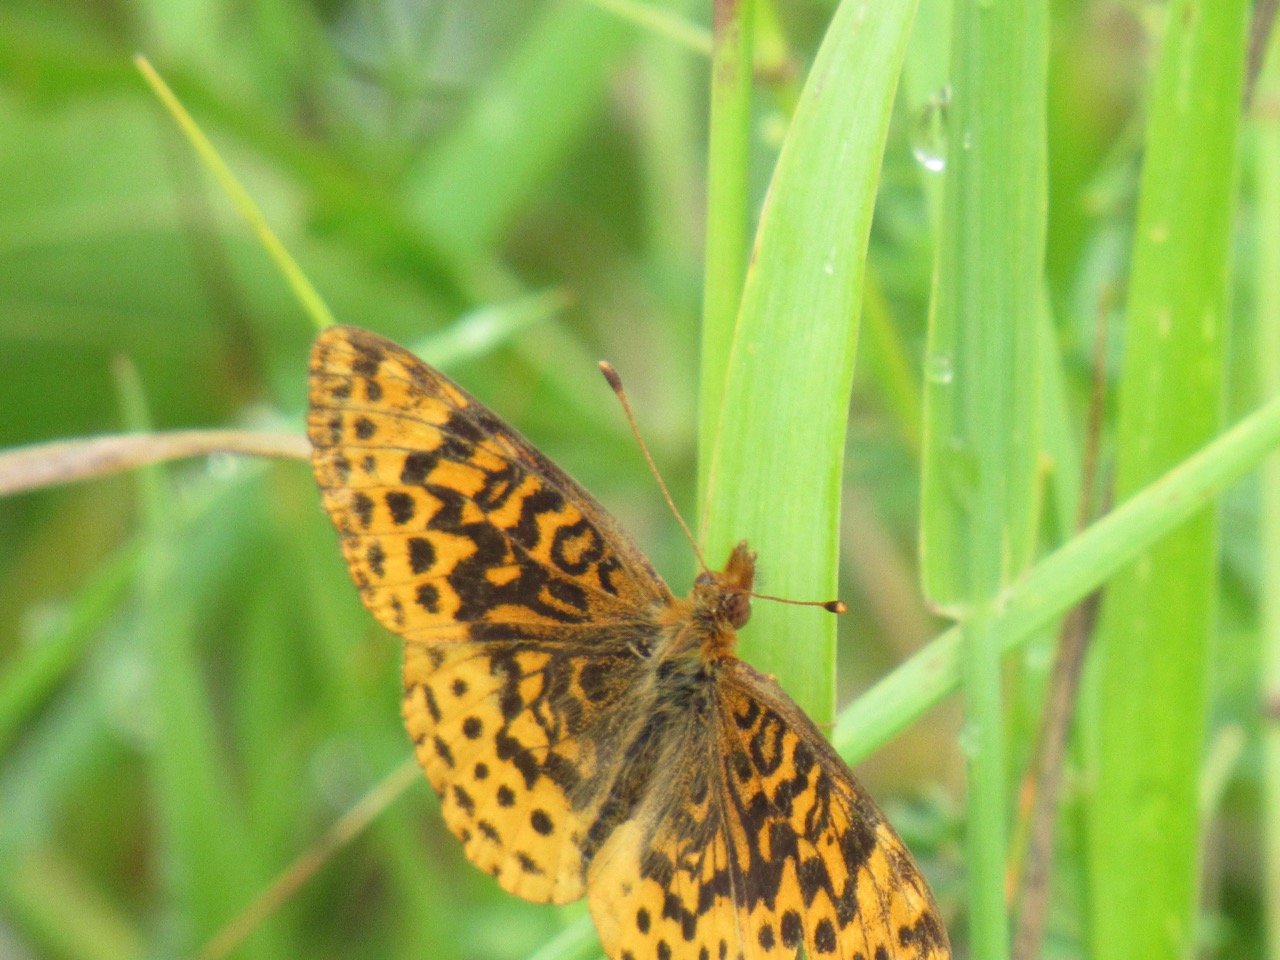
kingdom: Animalia
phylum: Arthropoda
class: Insecta
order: Lepidoptera
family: Nymphalidae
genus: Clossiana
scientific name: Clossiana toddi
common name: Meadow Fritillary
